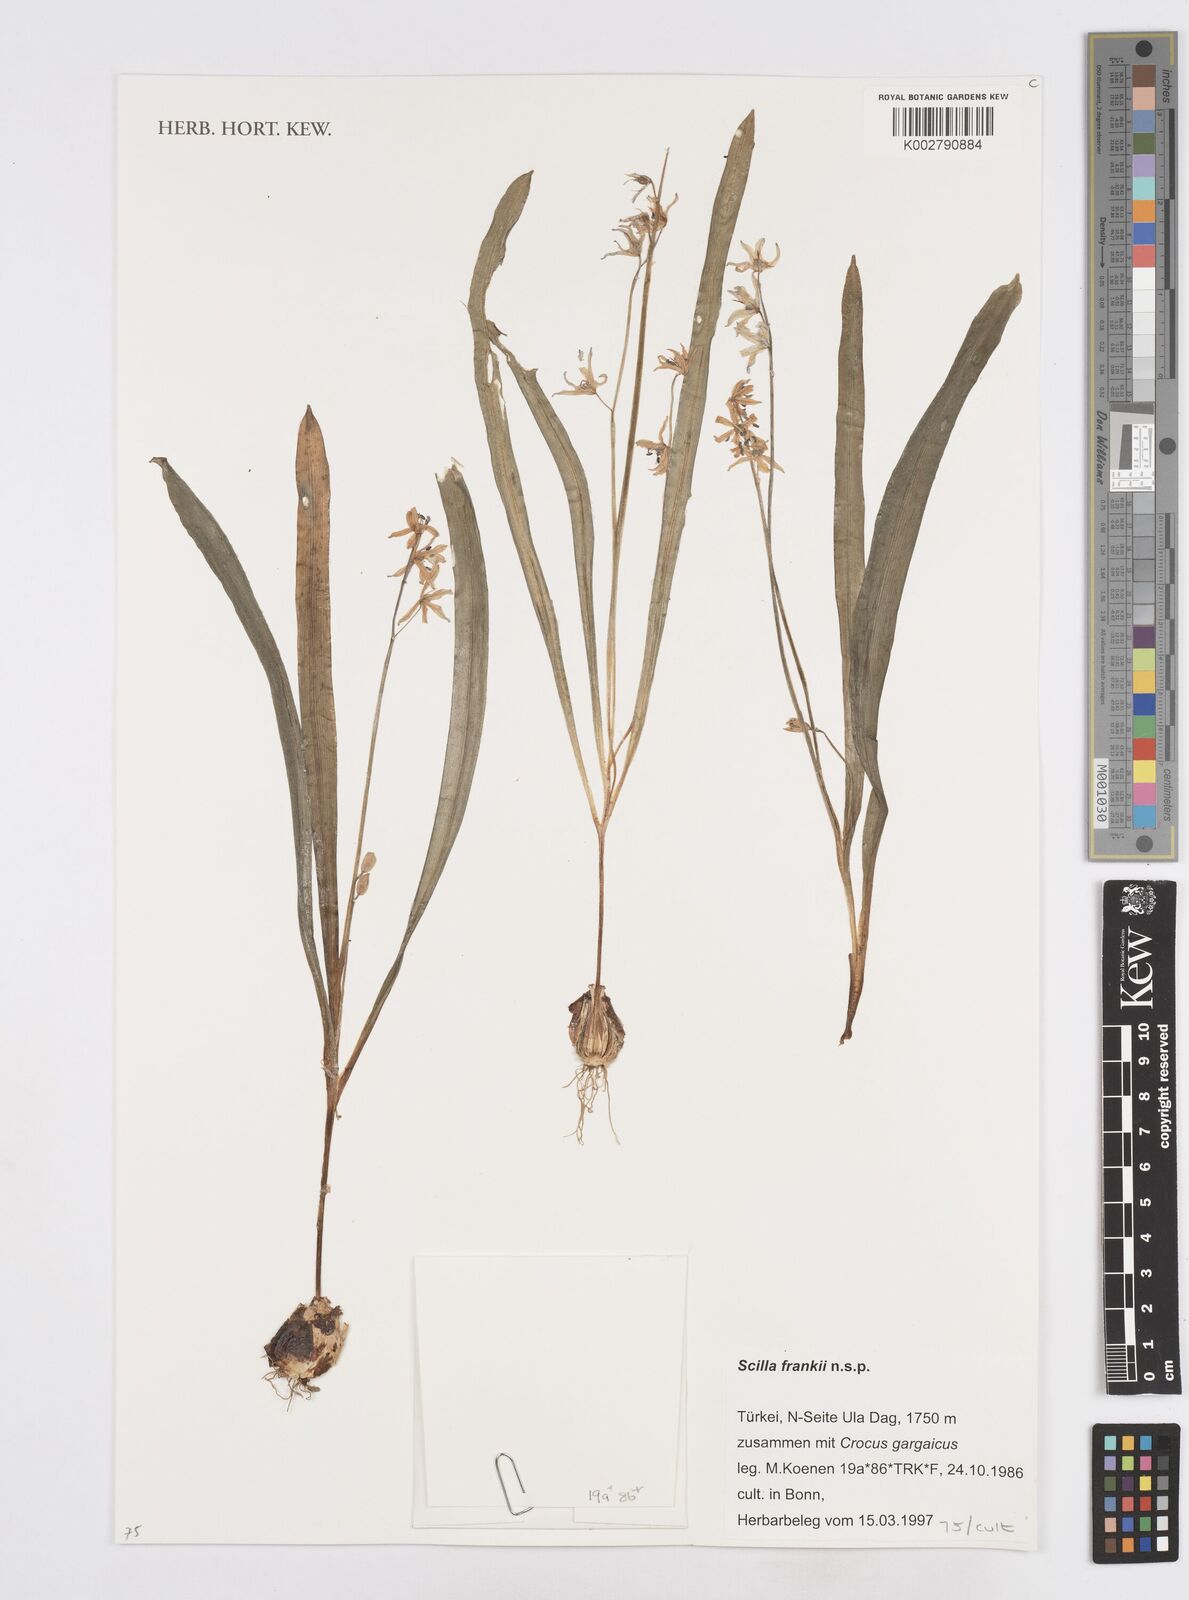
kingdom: Plantae
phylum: Tracheophyta
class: Liliopsida
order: Asparagales
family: Asparagaceae
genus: Scilla
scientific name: Scilla forbesii
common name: Glory-of-the-snow
